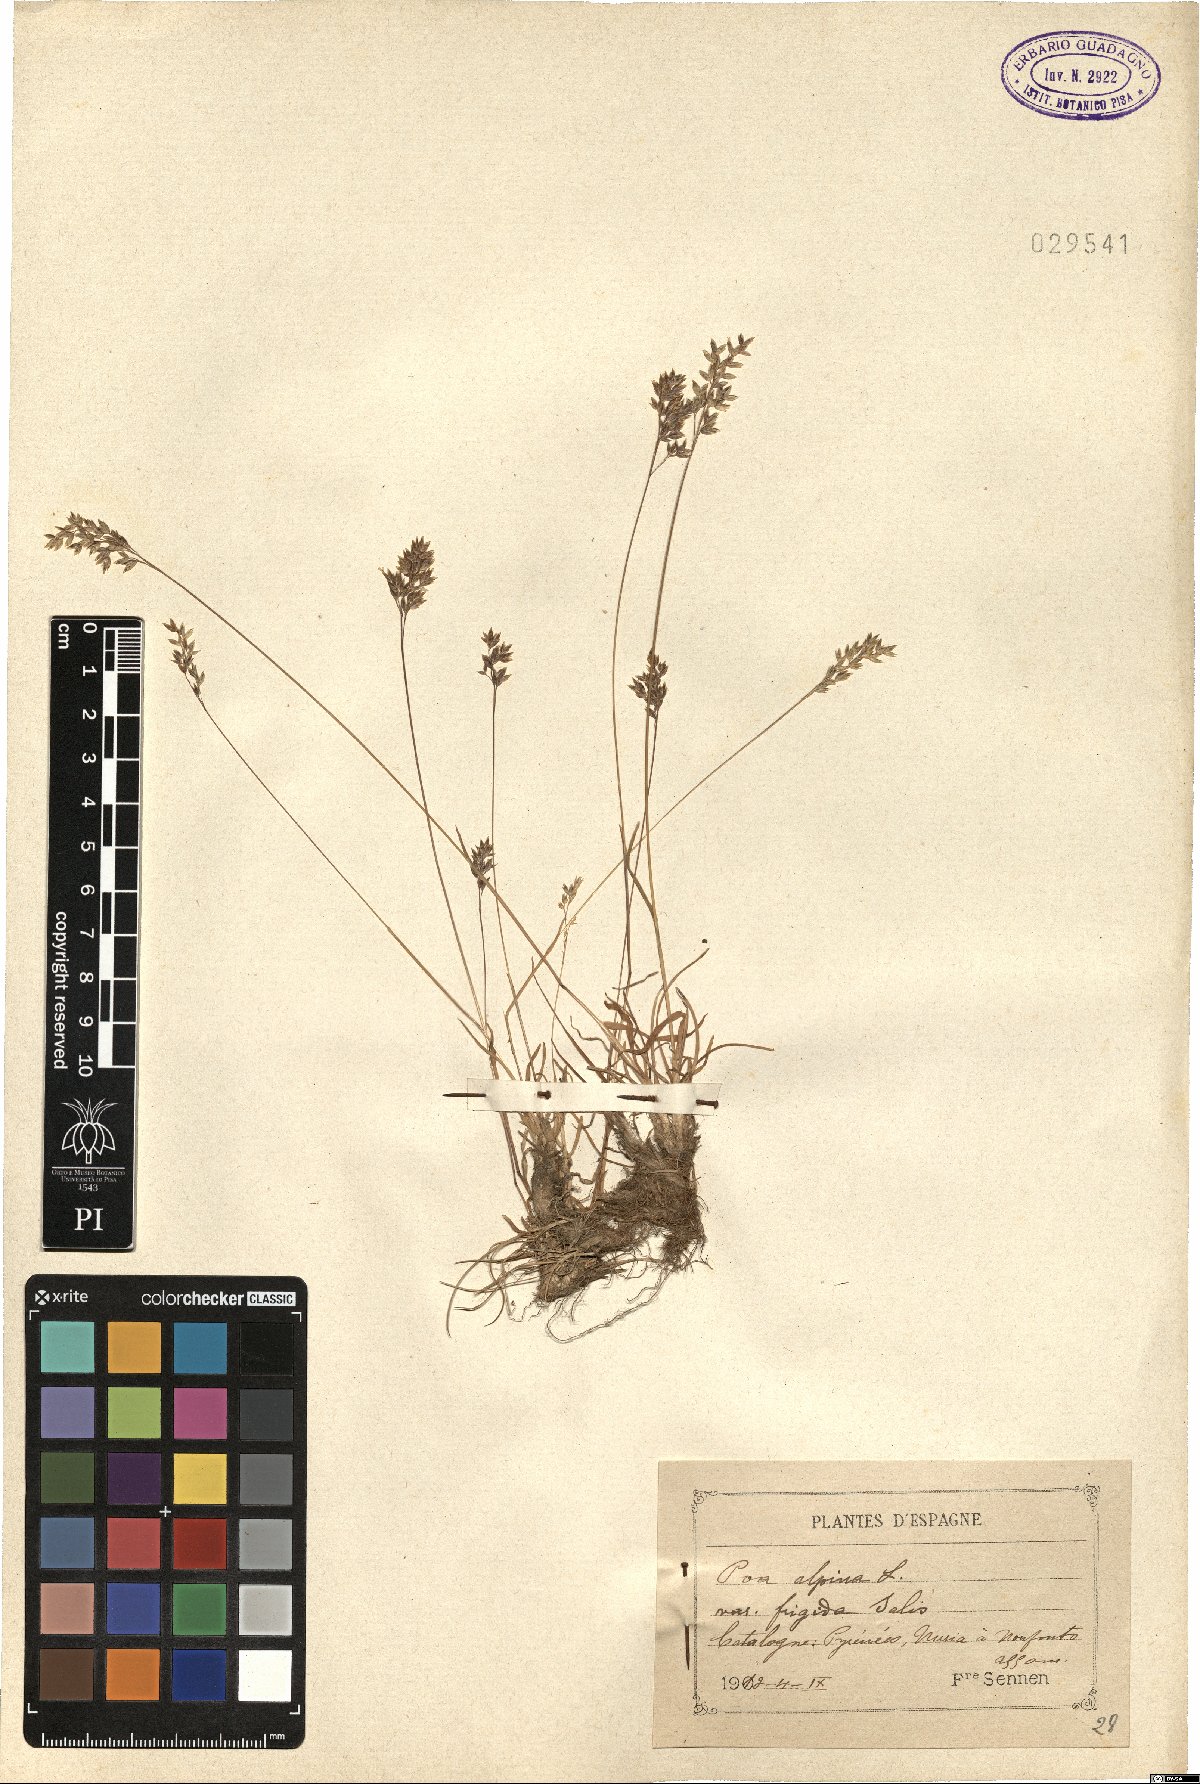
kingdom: Plantae
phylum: Tracheophyta
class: Liliopsida
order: Poales
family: Poaceae
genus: Poa
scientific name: Poa alpina
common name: Alpine bluegrass
